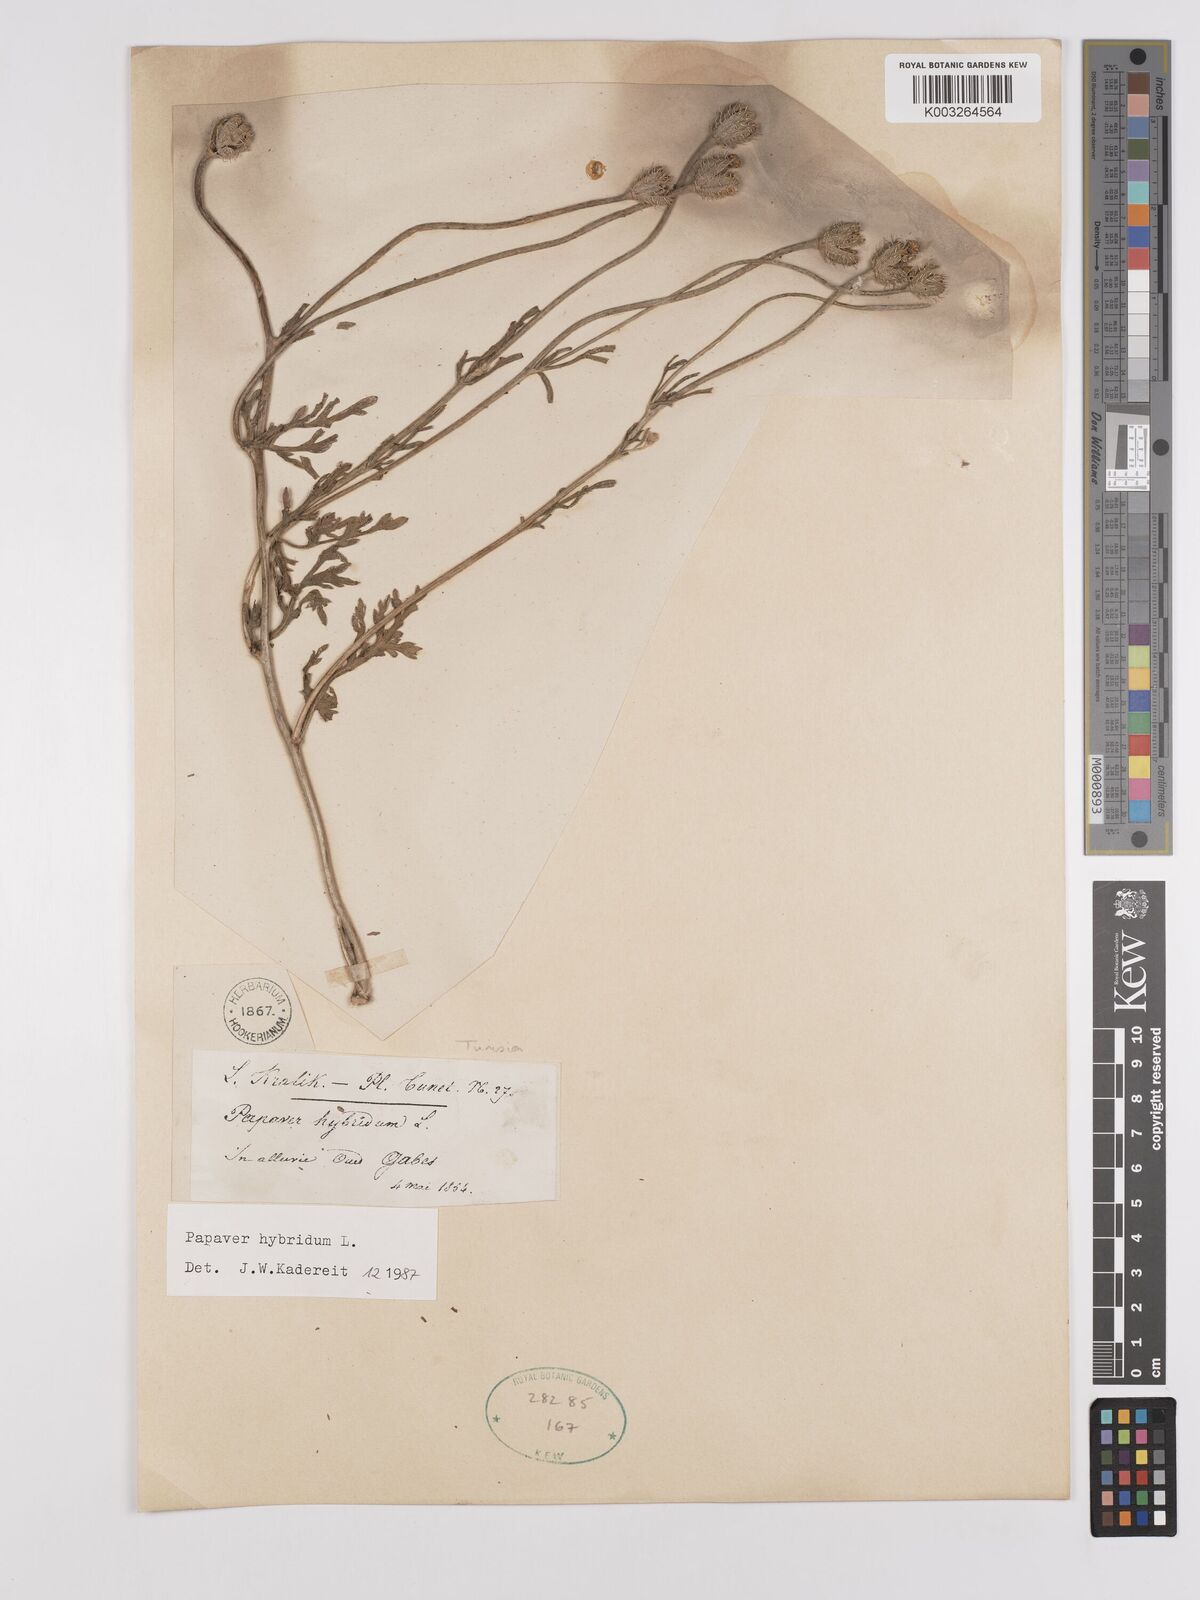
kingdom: Plantae
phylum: Tracheophyta
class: Magnoliopsida
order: Ranunculales
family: Papaveraceae
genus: Papaver
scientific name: Papaver
